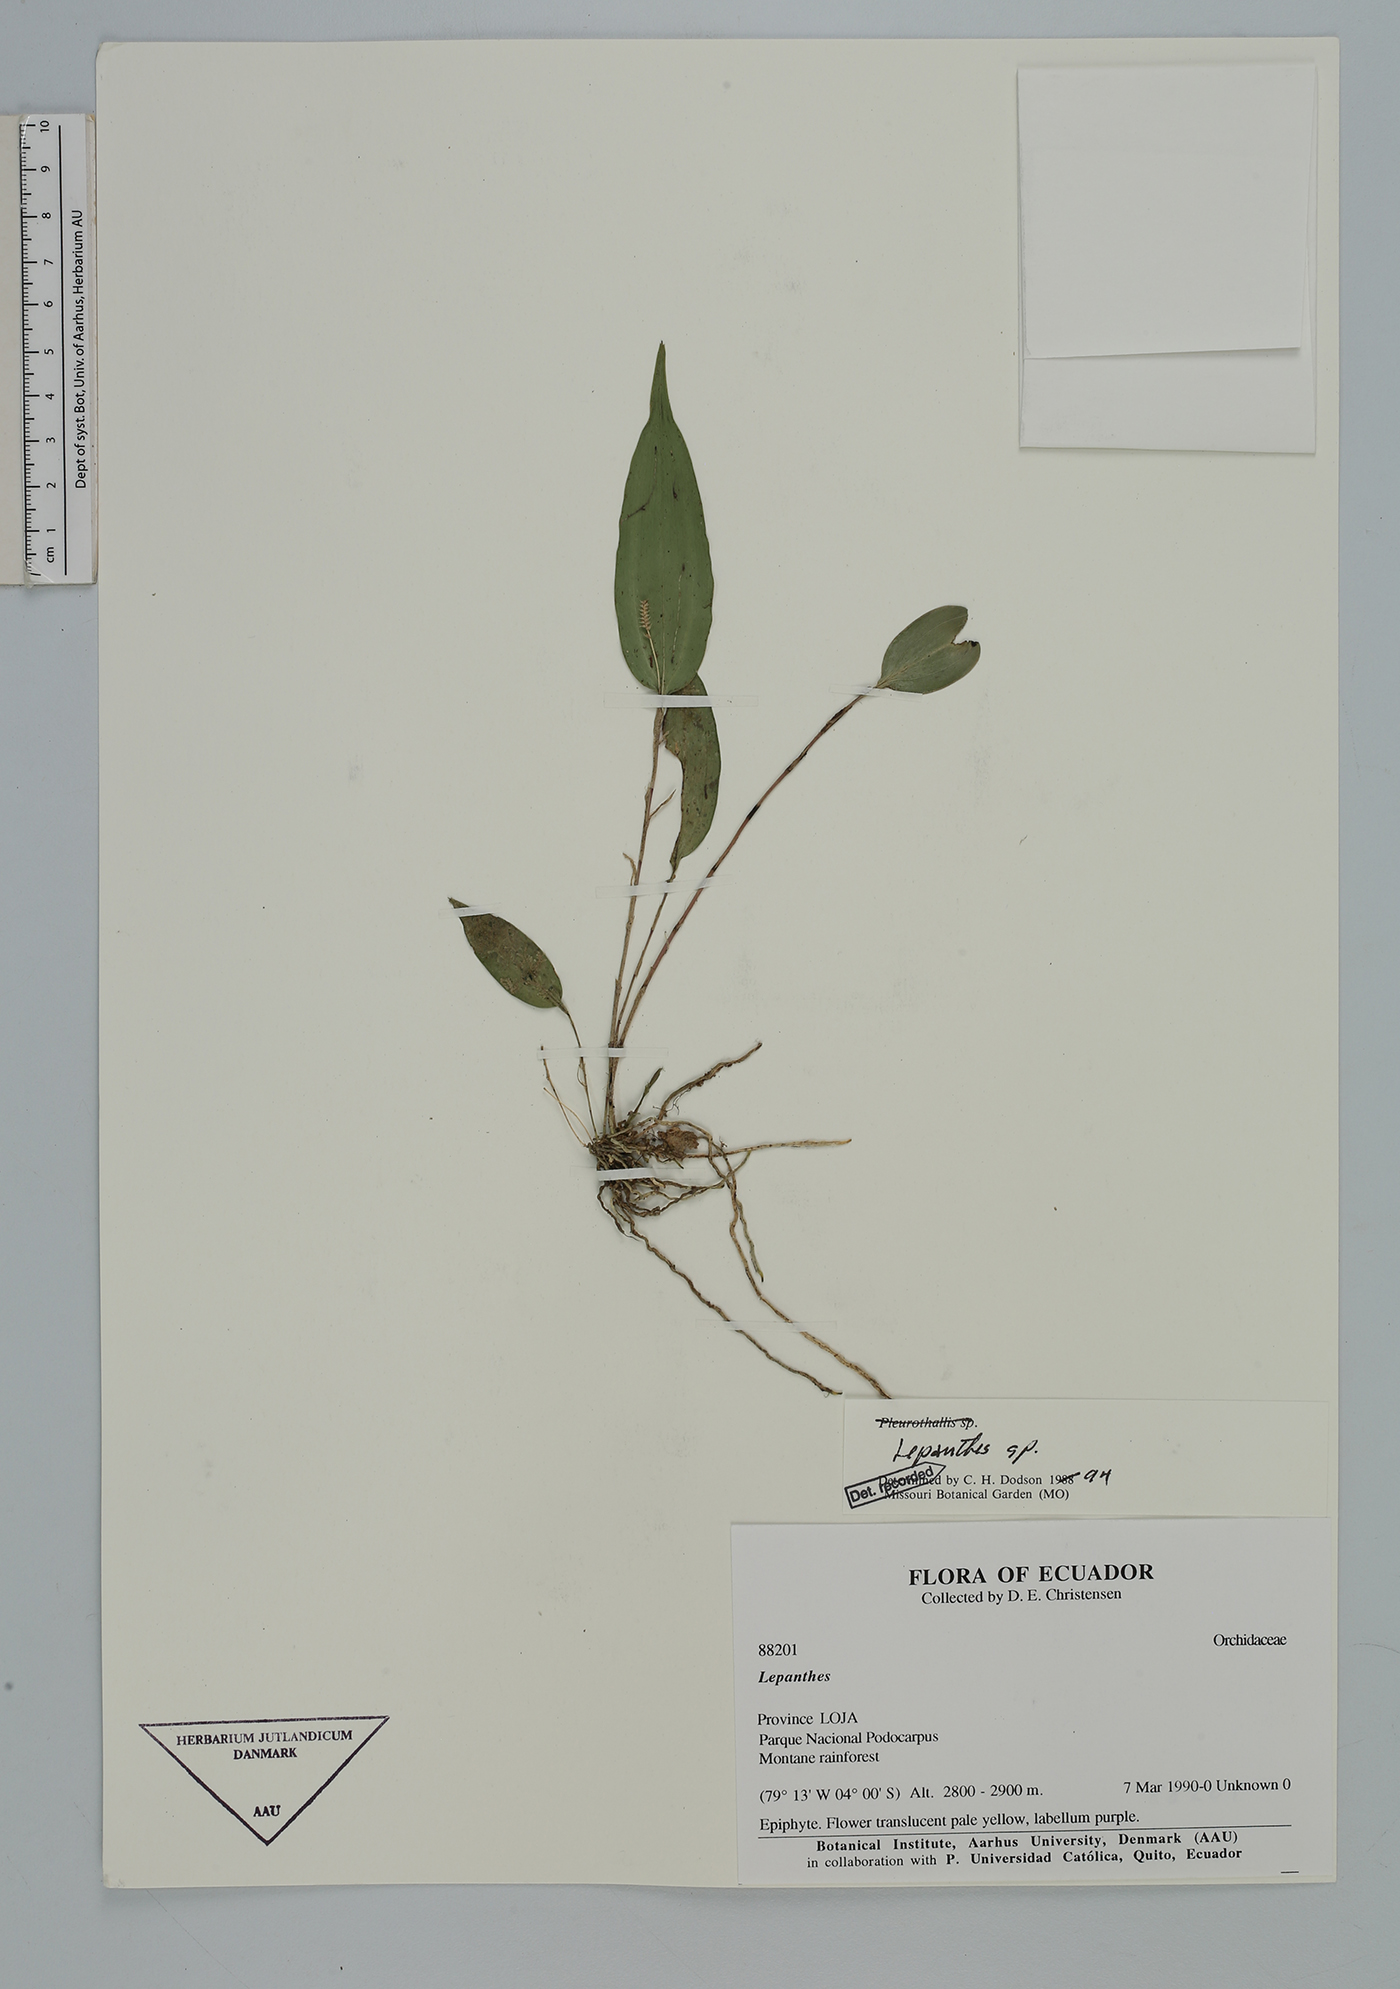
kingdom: Plantae
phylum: Tracheophyta
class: Liliopsida
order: Asparagales
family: Orchidaceae
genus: Lepanthes
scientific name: Lepanthes
